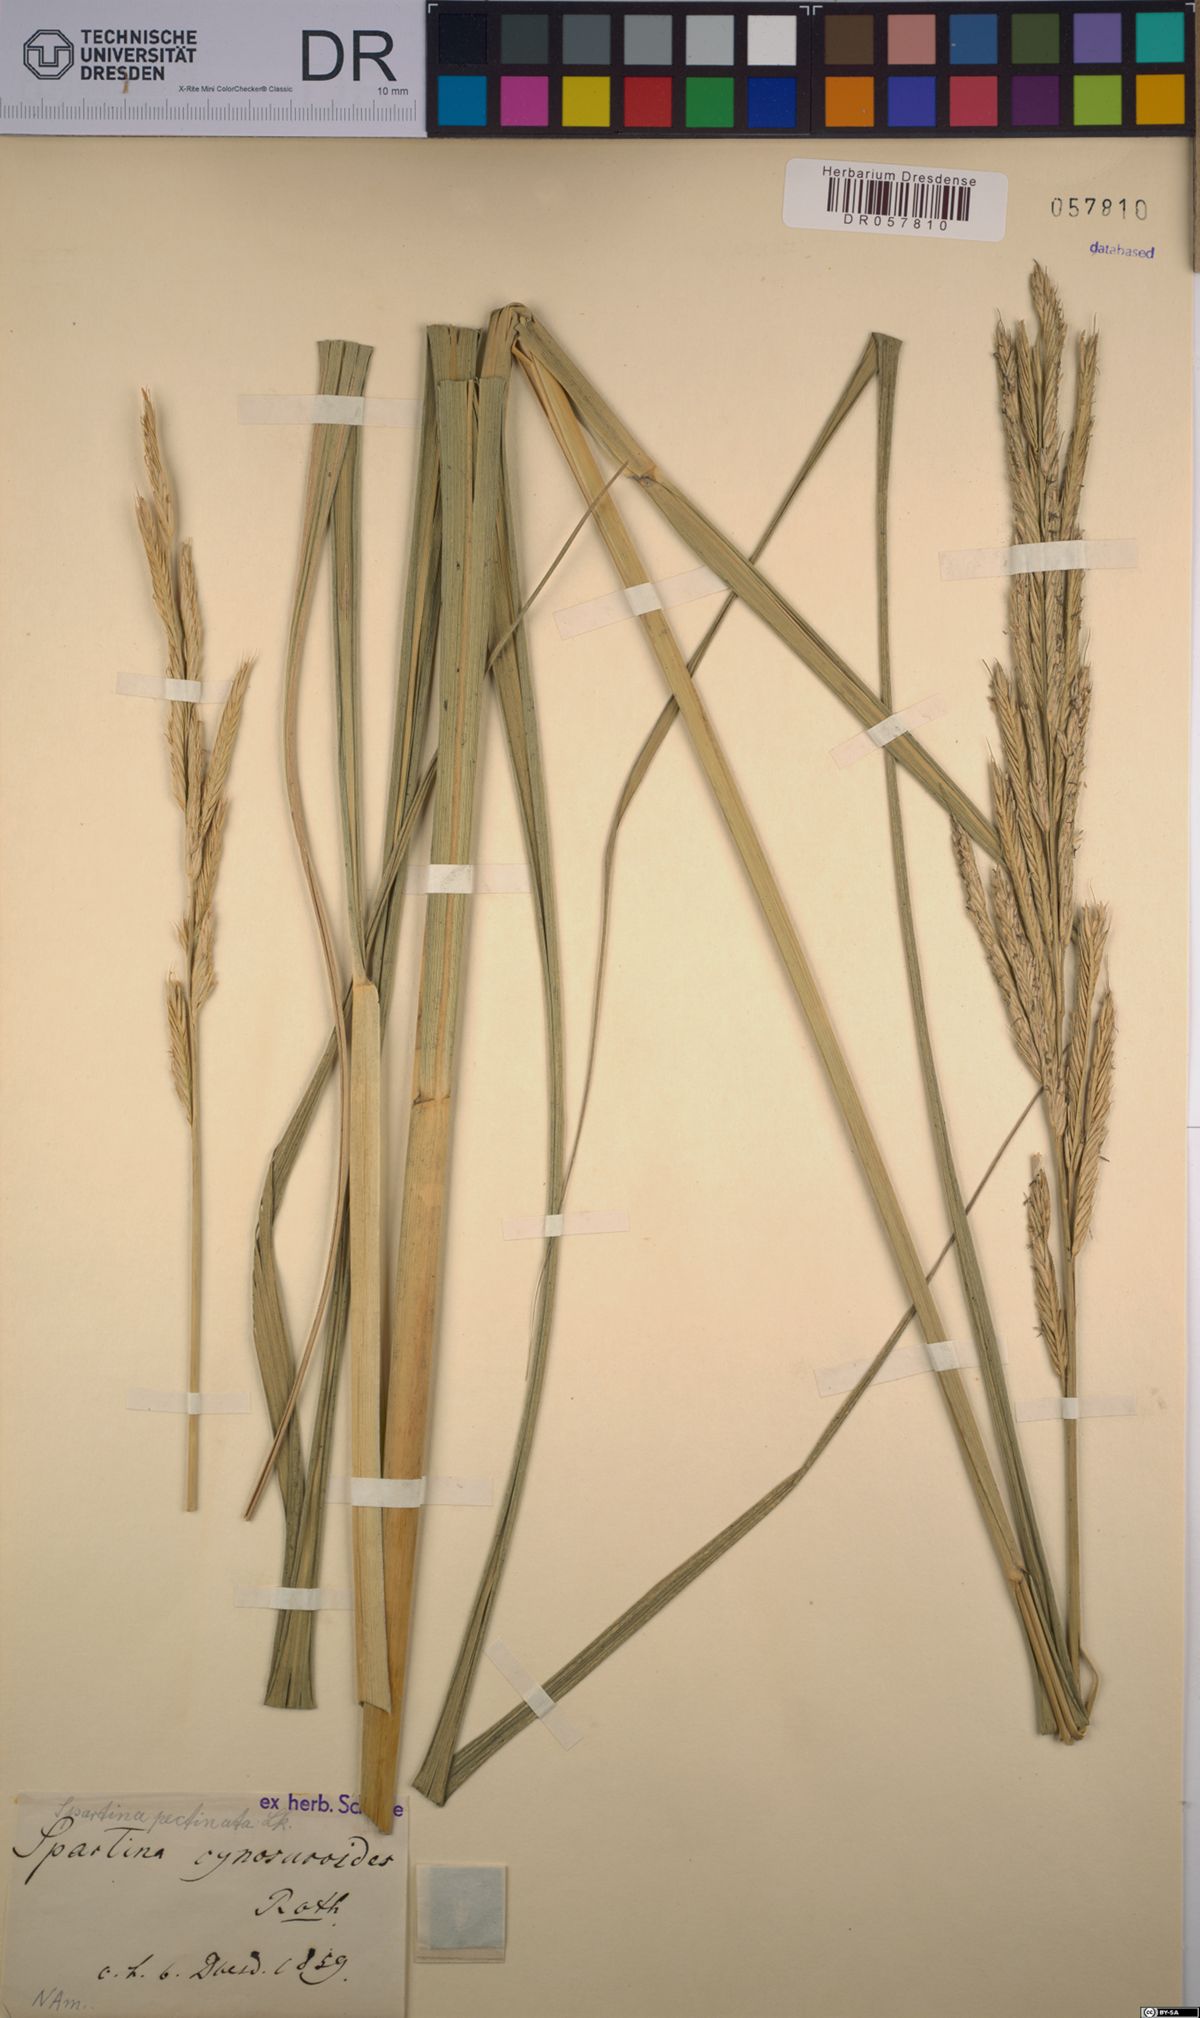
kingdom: Plantae
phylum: Tracheophyta
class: Liliopsida
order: Poales
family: Poaceae
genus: Sporobolus
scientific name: Sporobolus michauxianus
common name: Freshwater cordgrass
